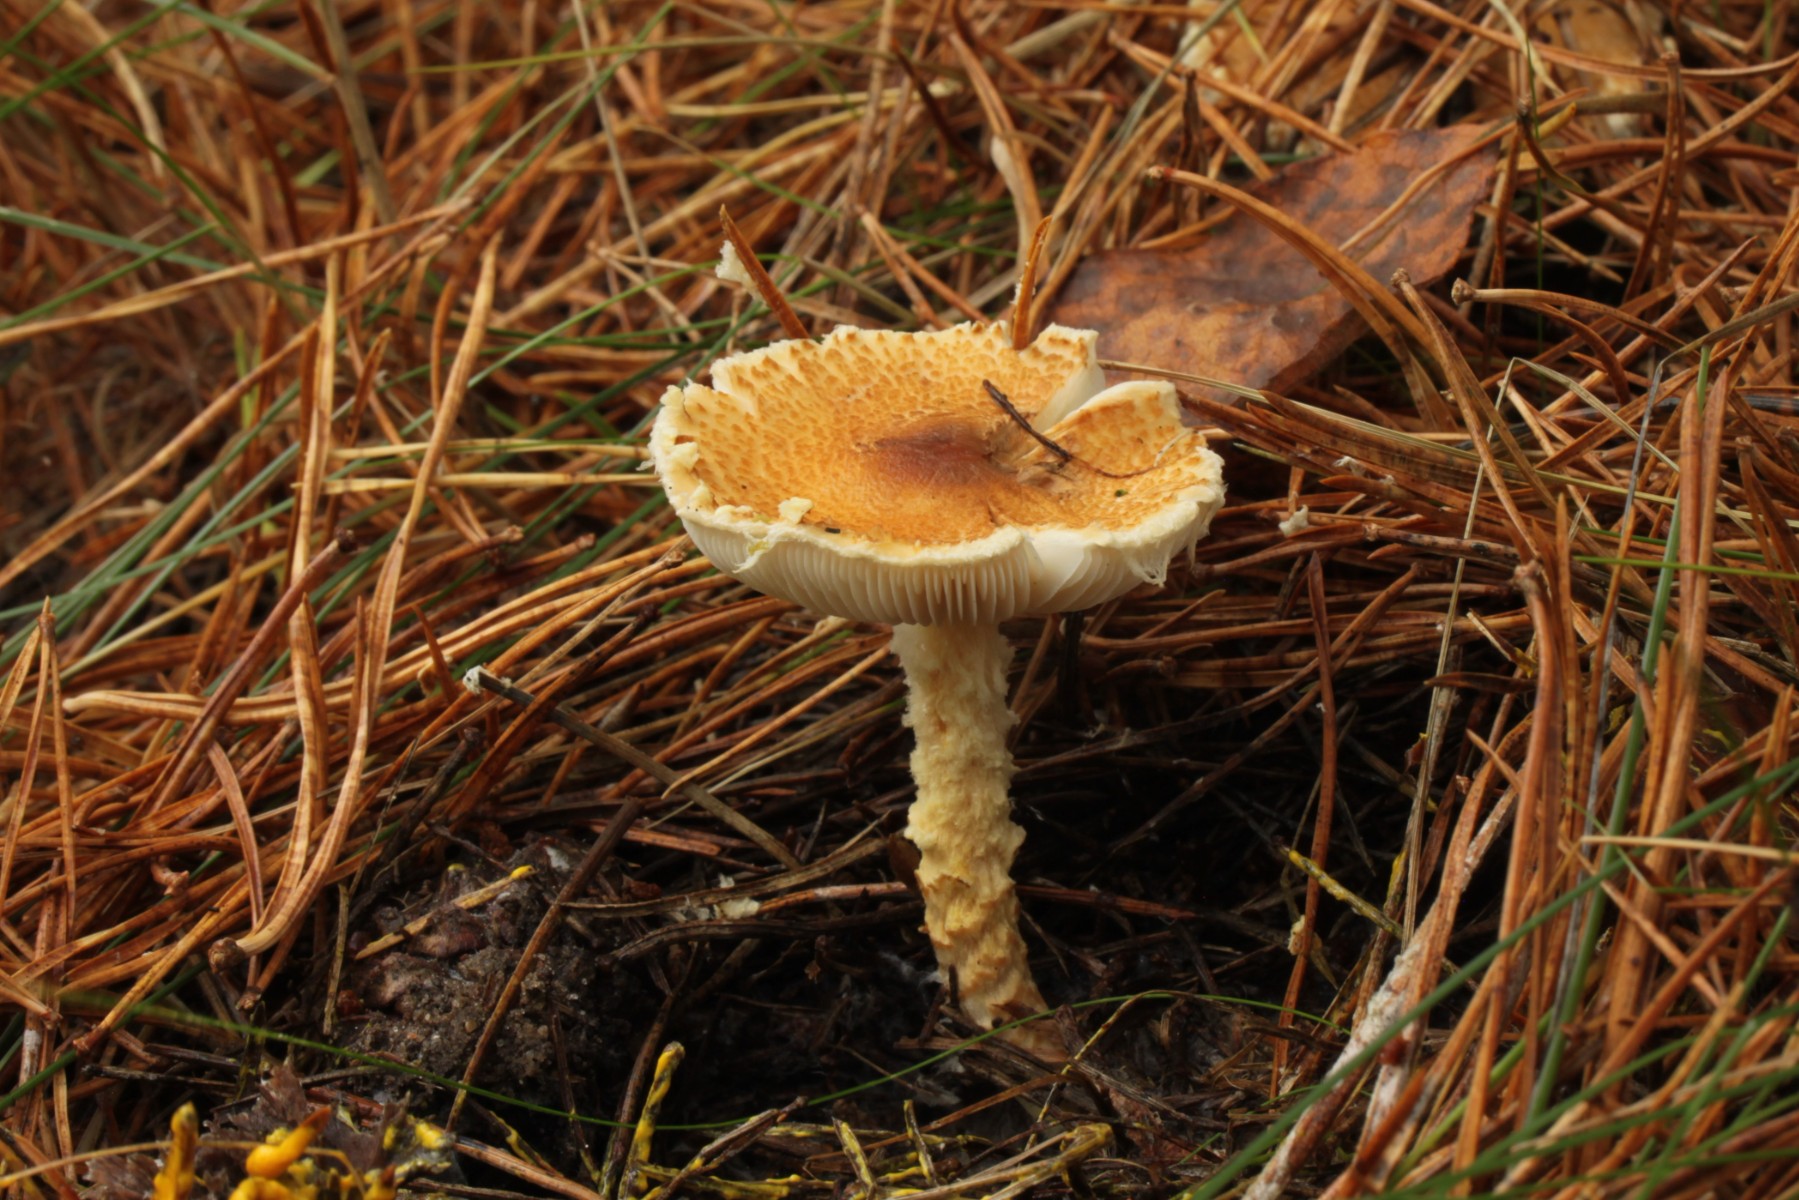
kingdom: Fungi
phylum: Basidiomycota
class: Agaricomycetes
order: Agaricales
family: Agaricaceae
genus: Lepiota
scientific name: Lepiota magnispora
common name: gulfnugget parasolhat
